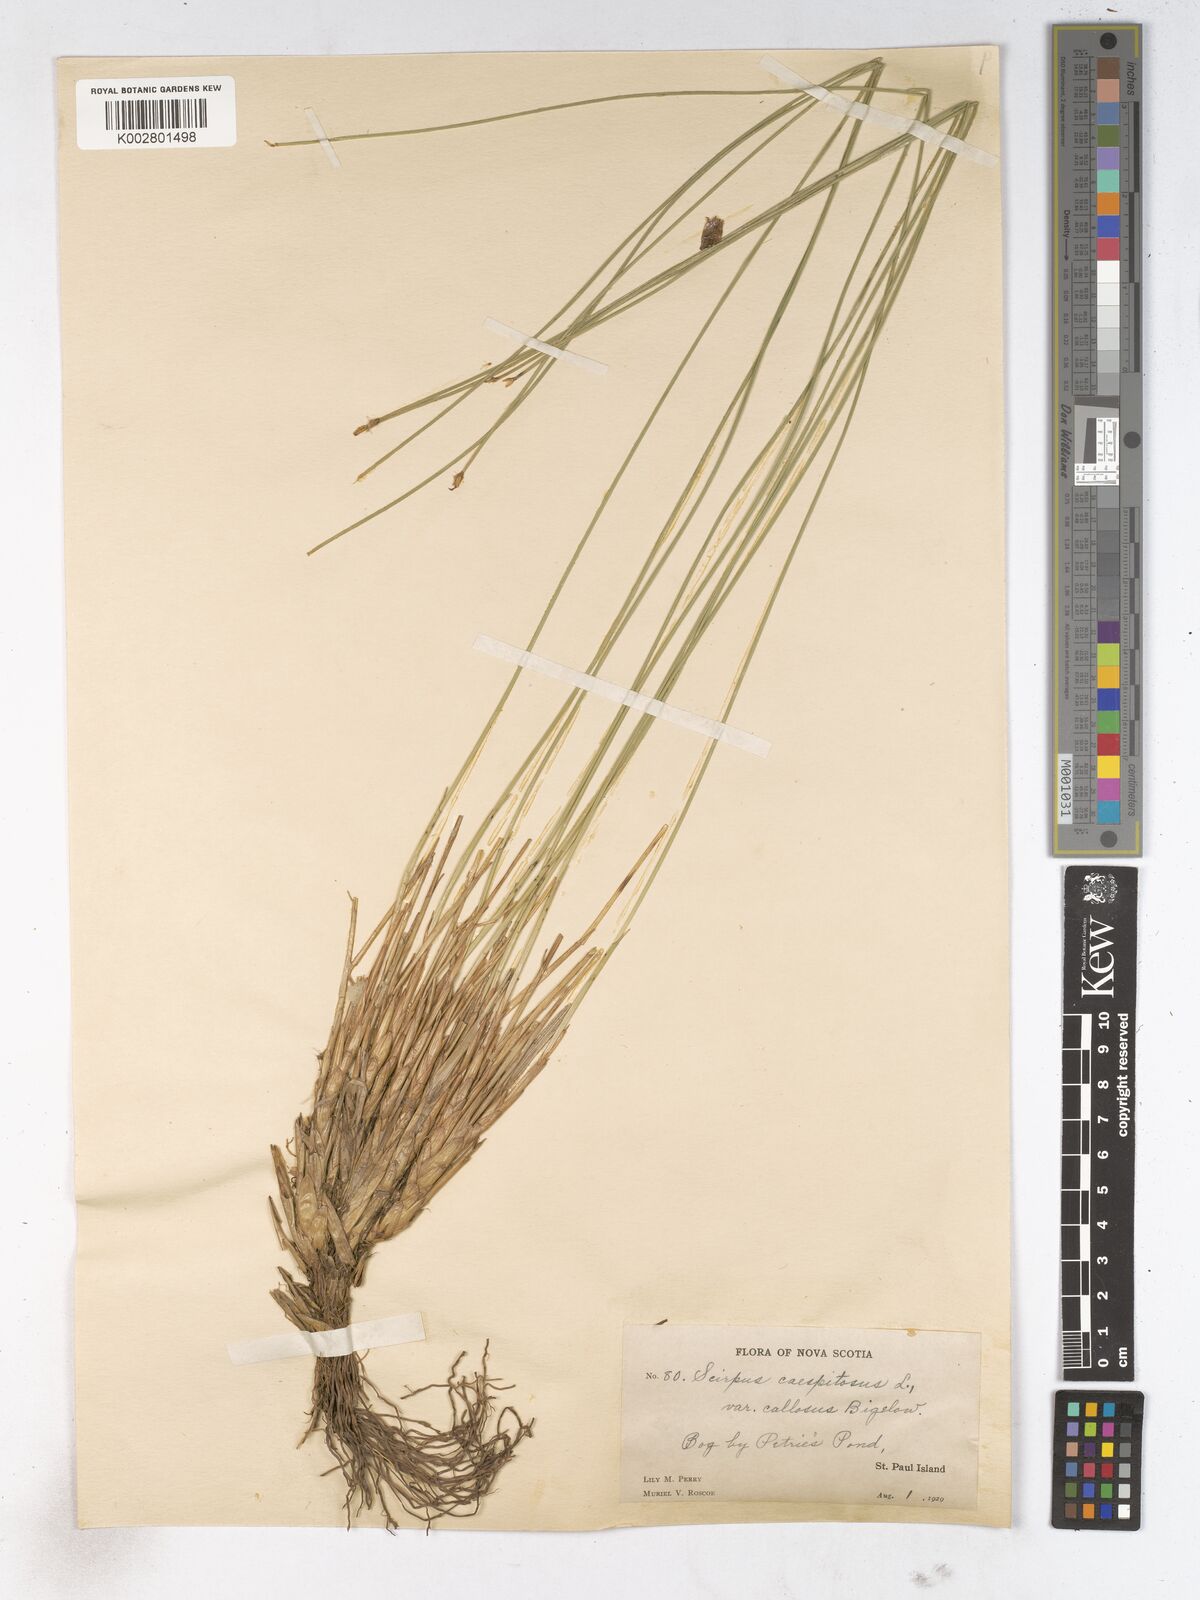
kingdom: Plantae
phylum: Tracheophyta
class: Liliopsida
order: Poales
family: Cyperaceae
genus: Trichophorum
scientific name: Trichophorum cespitosum
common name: Cespitose bulrush
